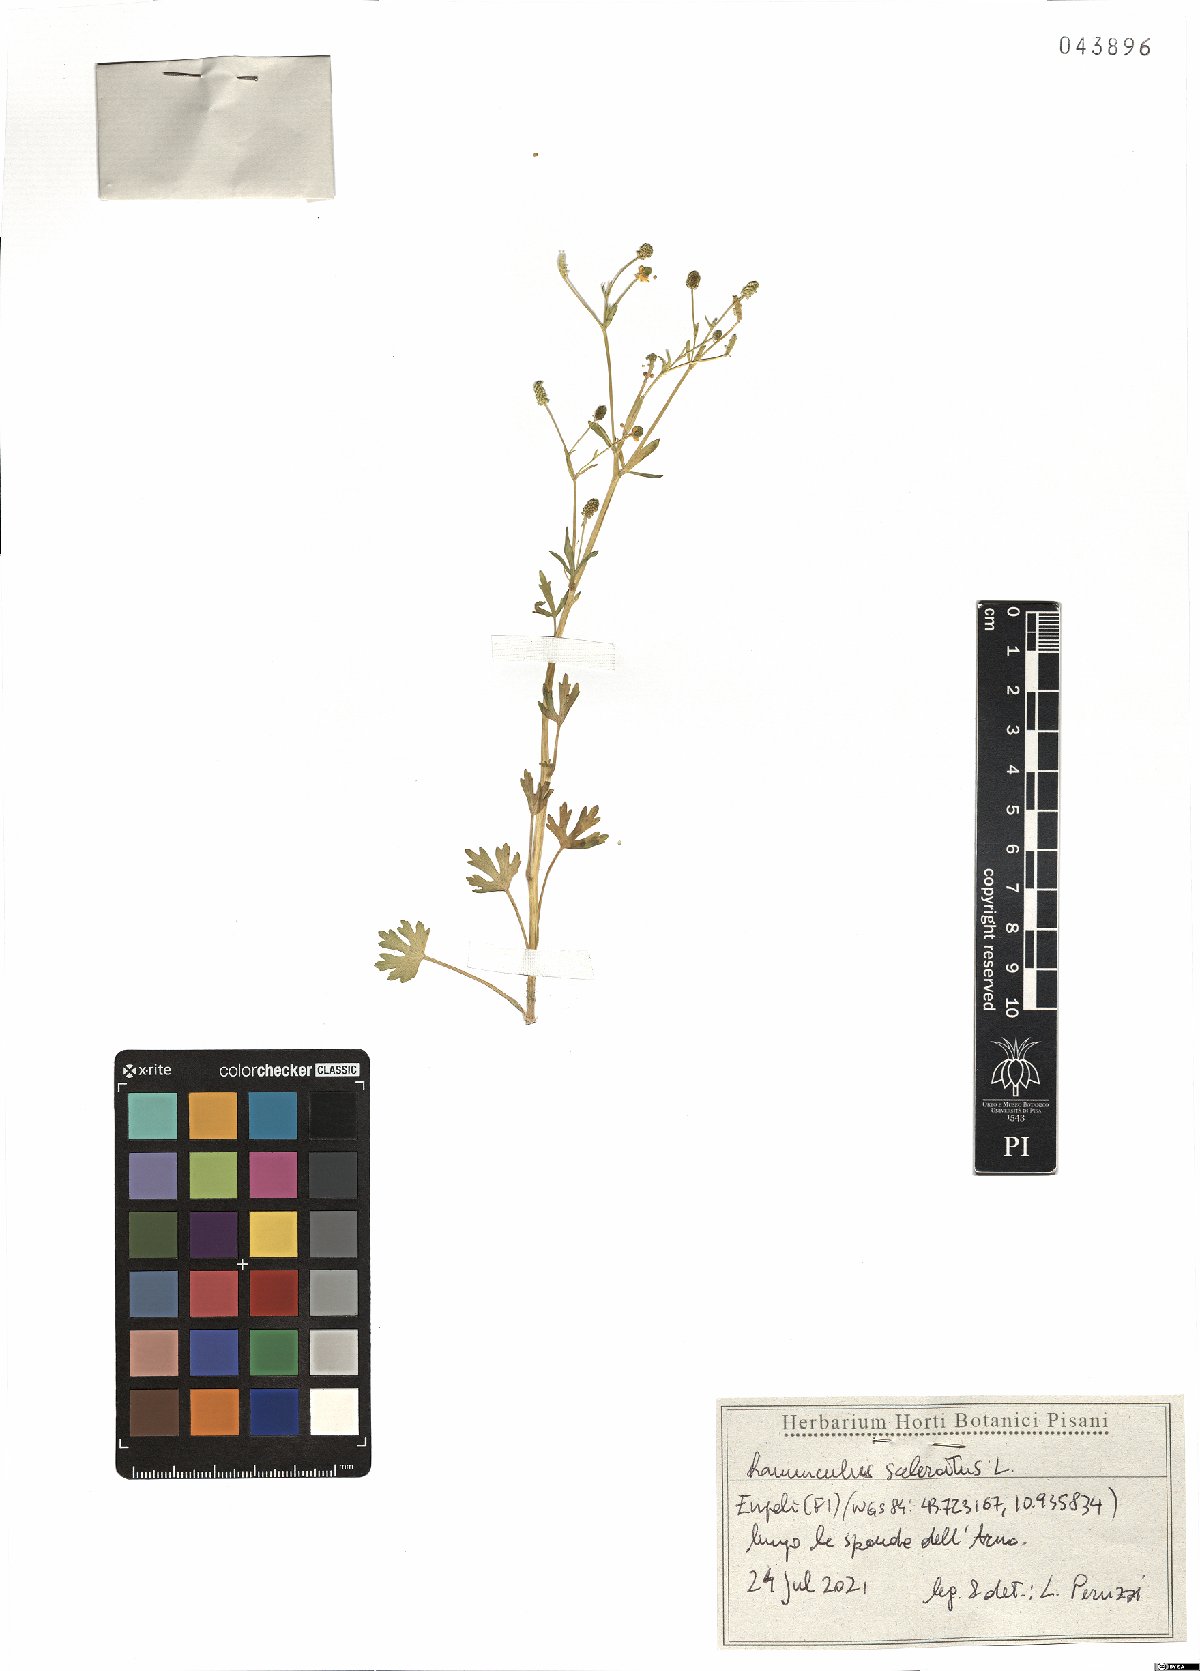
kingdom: Plantae
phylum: Tracheophyta
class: Magnoliopsida
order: Ranunculales
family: Ranunculaceae
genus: Ranunculus
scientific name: Ranunculus sceleratus
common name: Celery-leaved buttercup
